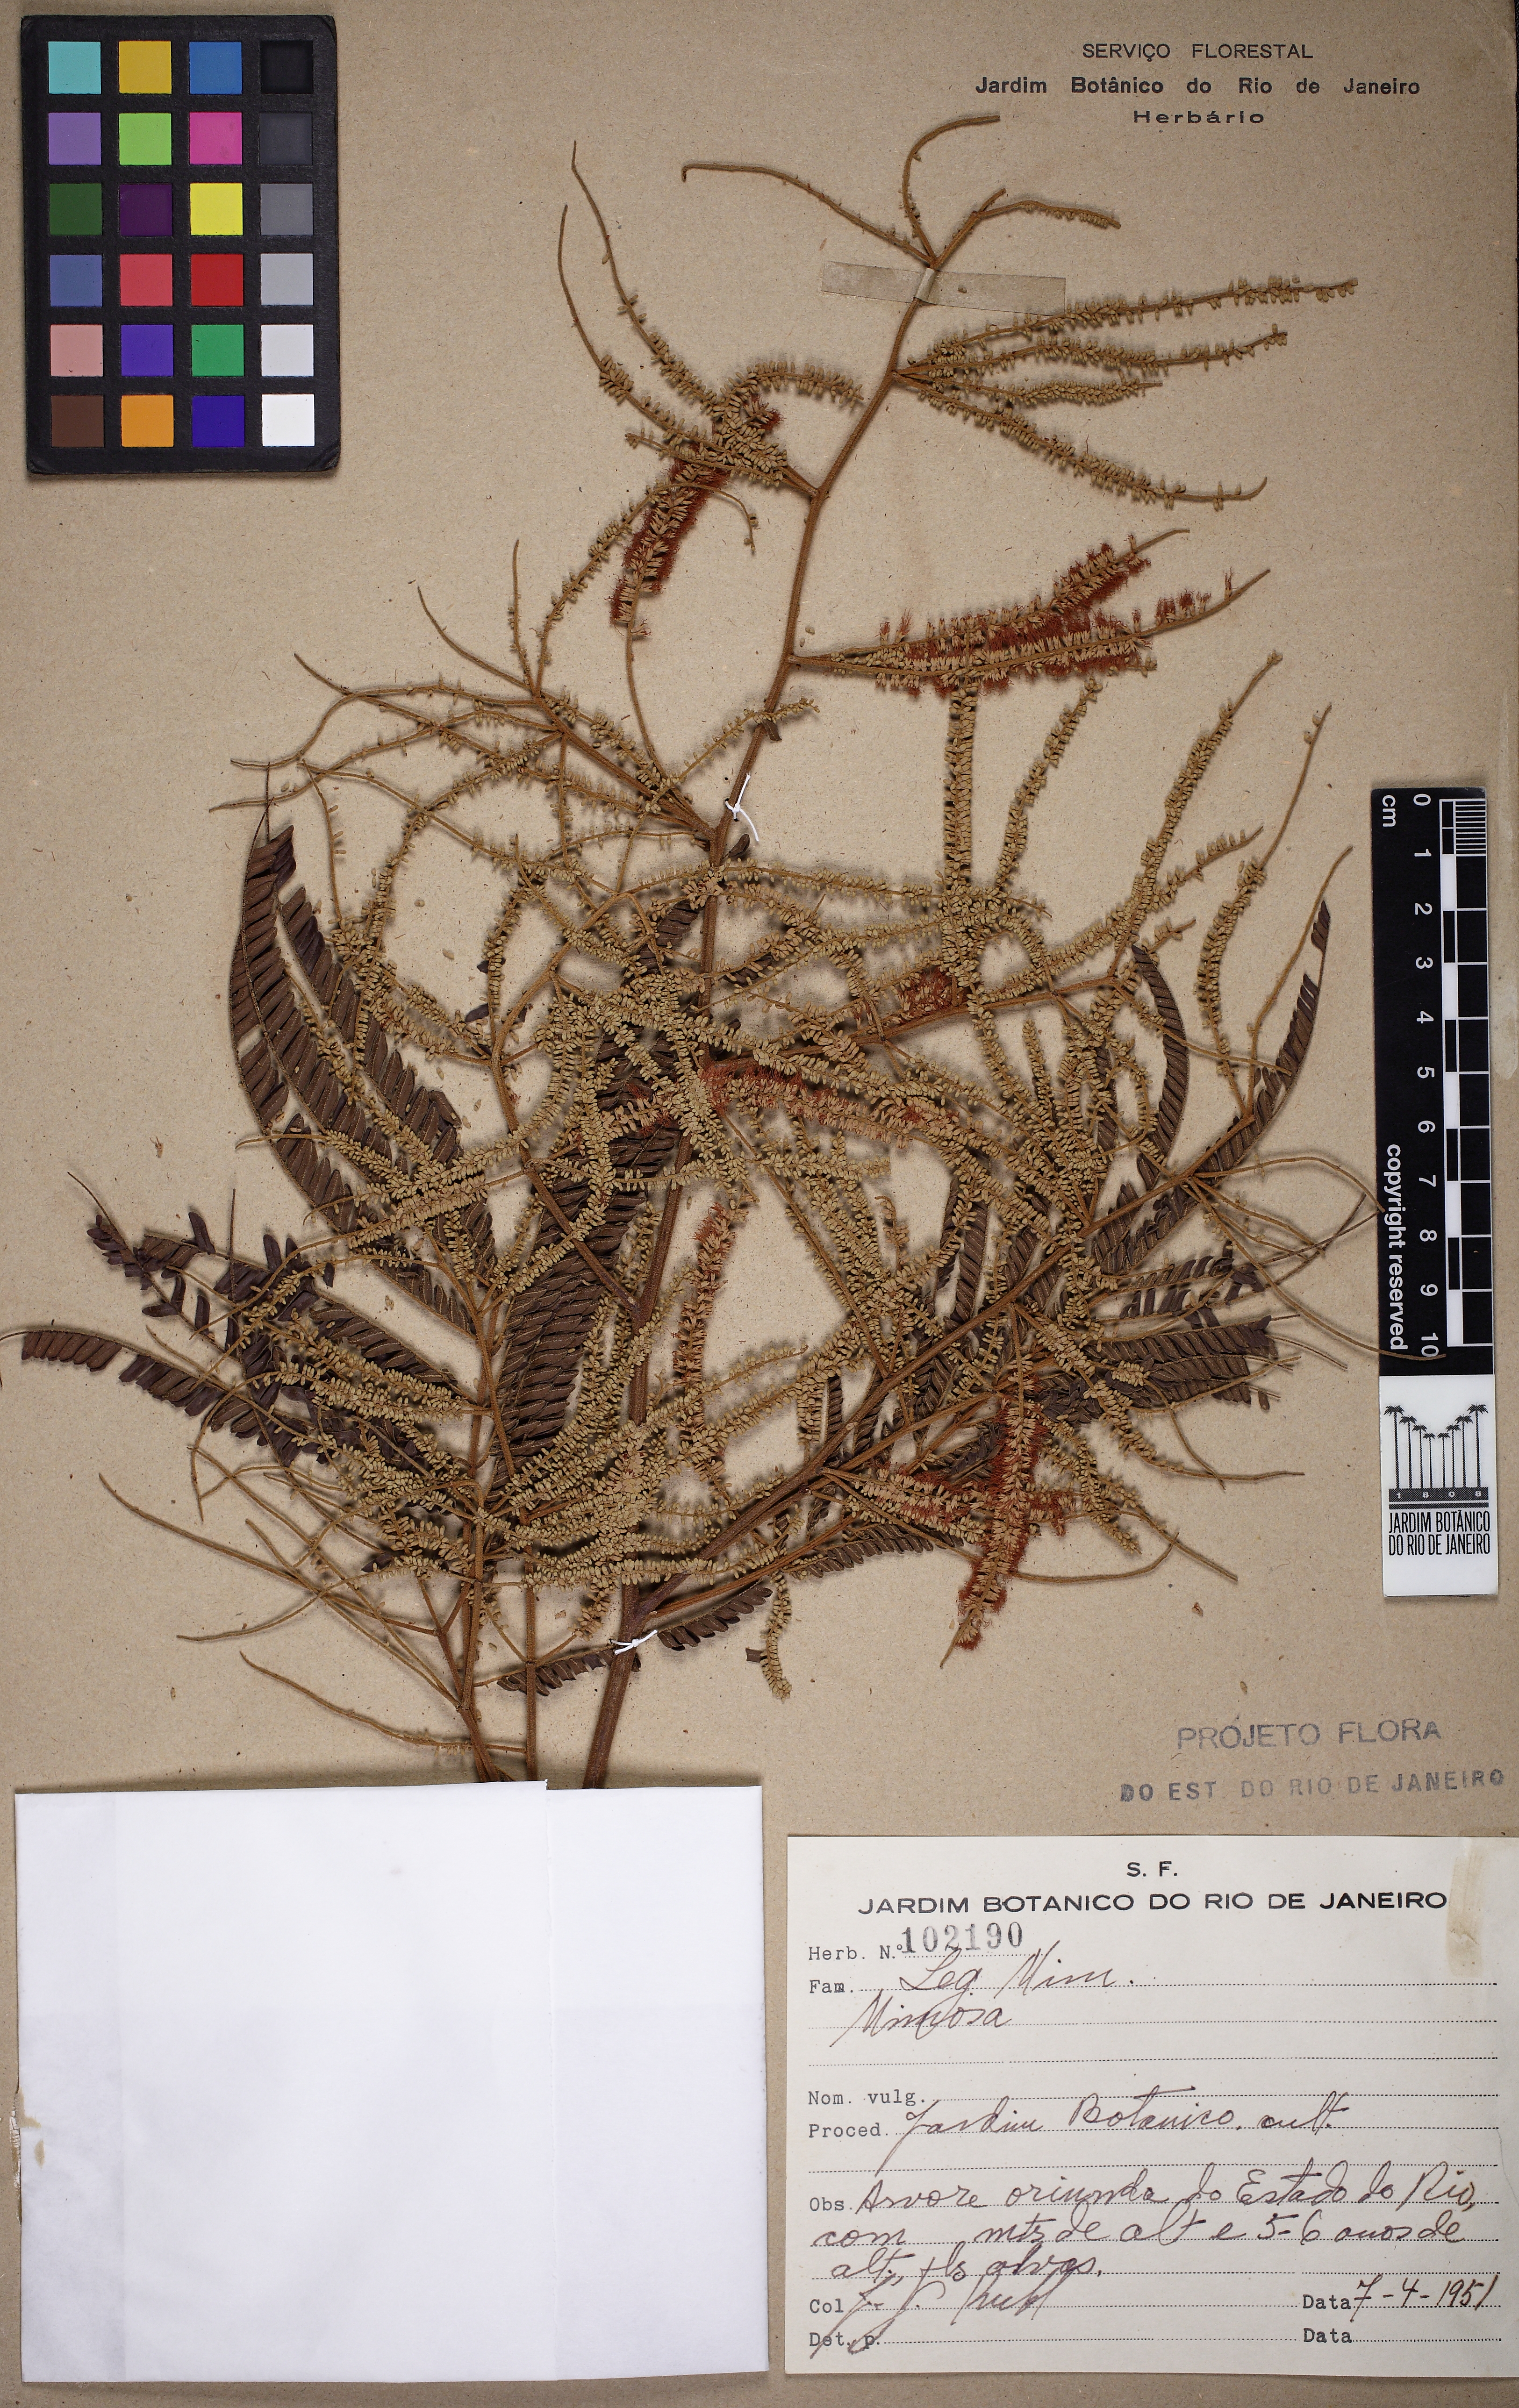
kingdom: Plantae
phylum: Tracheophyta
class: Magnoliopsida
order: Fabales
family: Fabaceae
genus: Mimosa
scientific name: Mimosa schomburgkii
